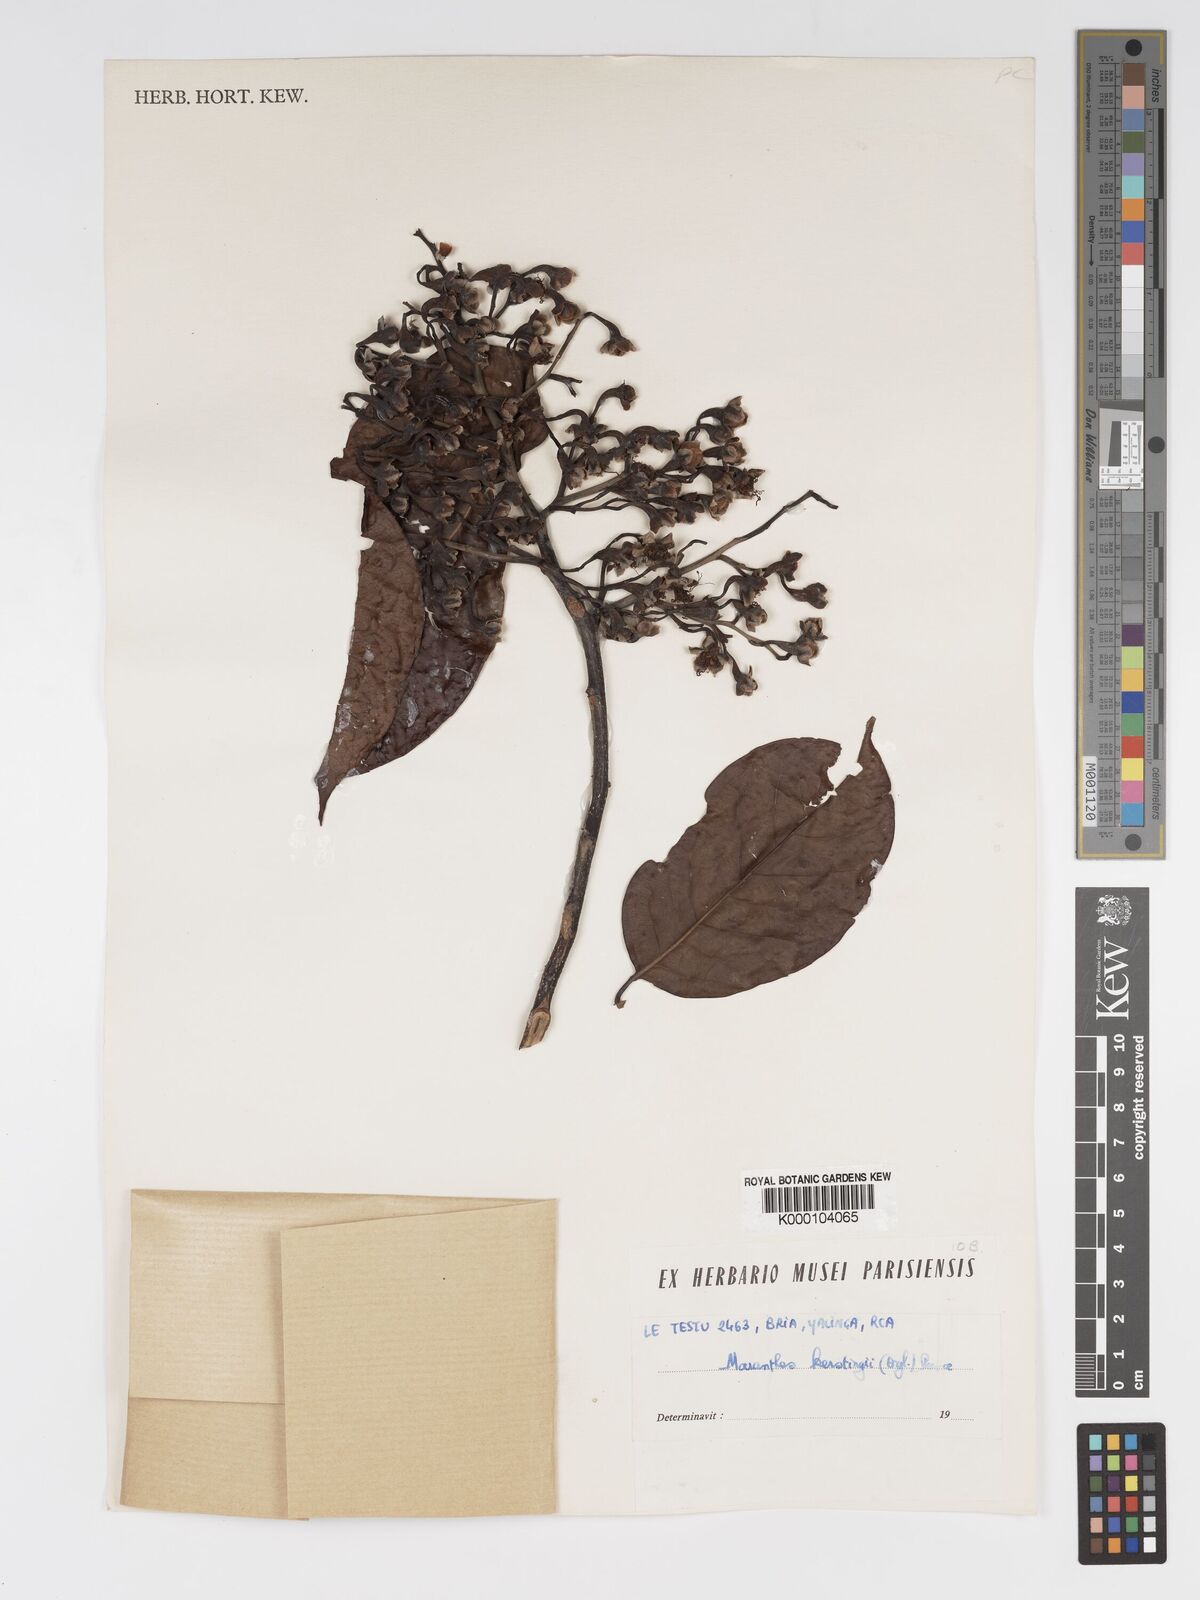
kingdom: Plantae
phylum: Tracheophyta
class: Magnoliopsida
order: Malpighiales
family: Chrysobalanaceae
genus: Maranthes
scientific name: Maranthes
